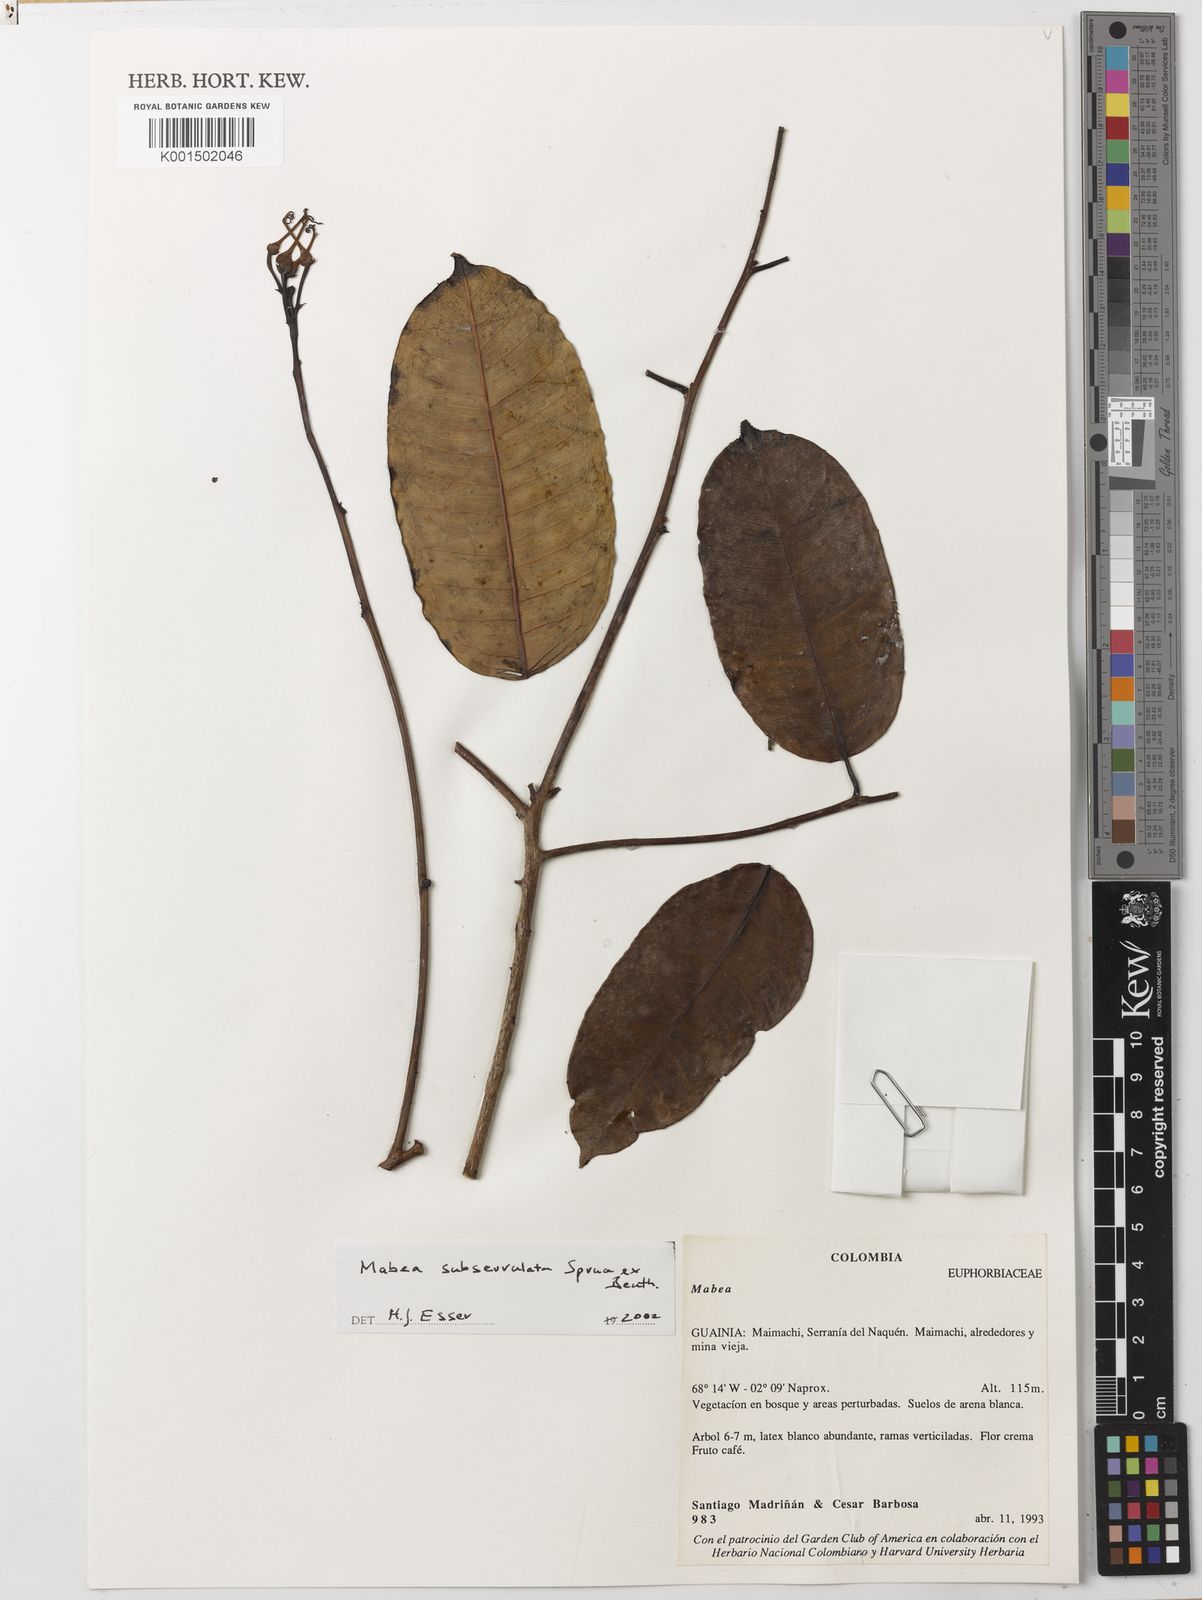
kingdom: Plantae
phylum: Tracheophyta
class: Magnoliopsida
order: Malpighiales
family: Euphorbiaceae
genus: Mabea
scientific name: Mabea subserrulata
